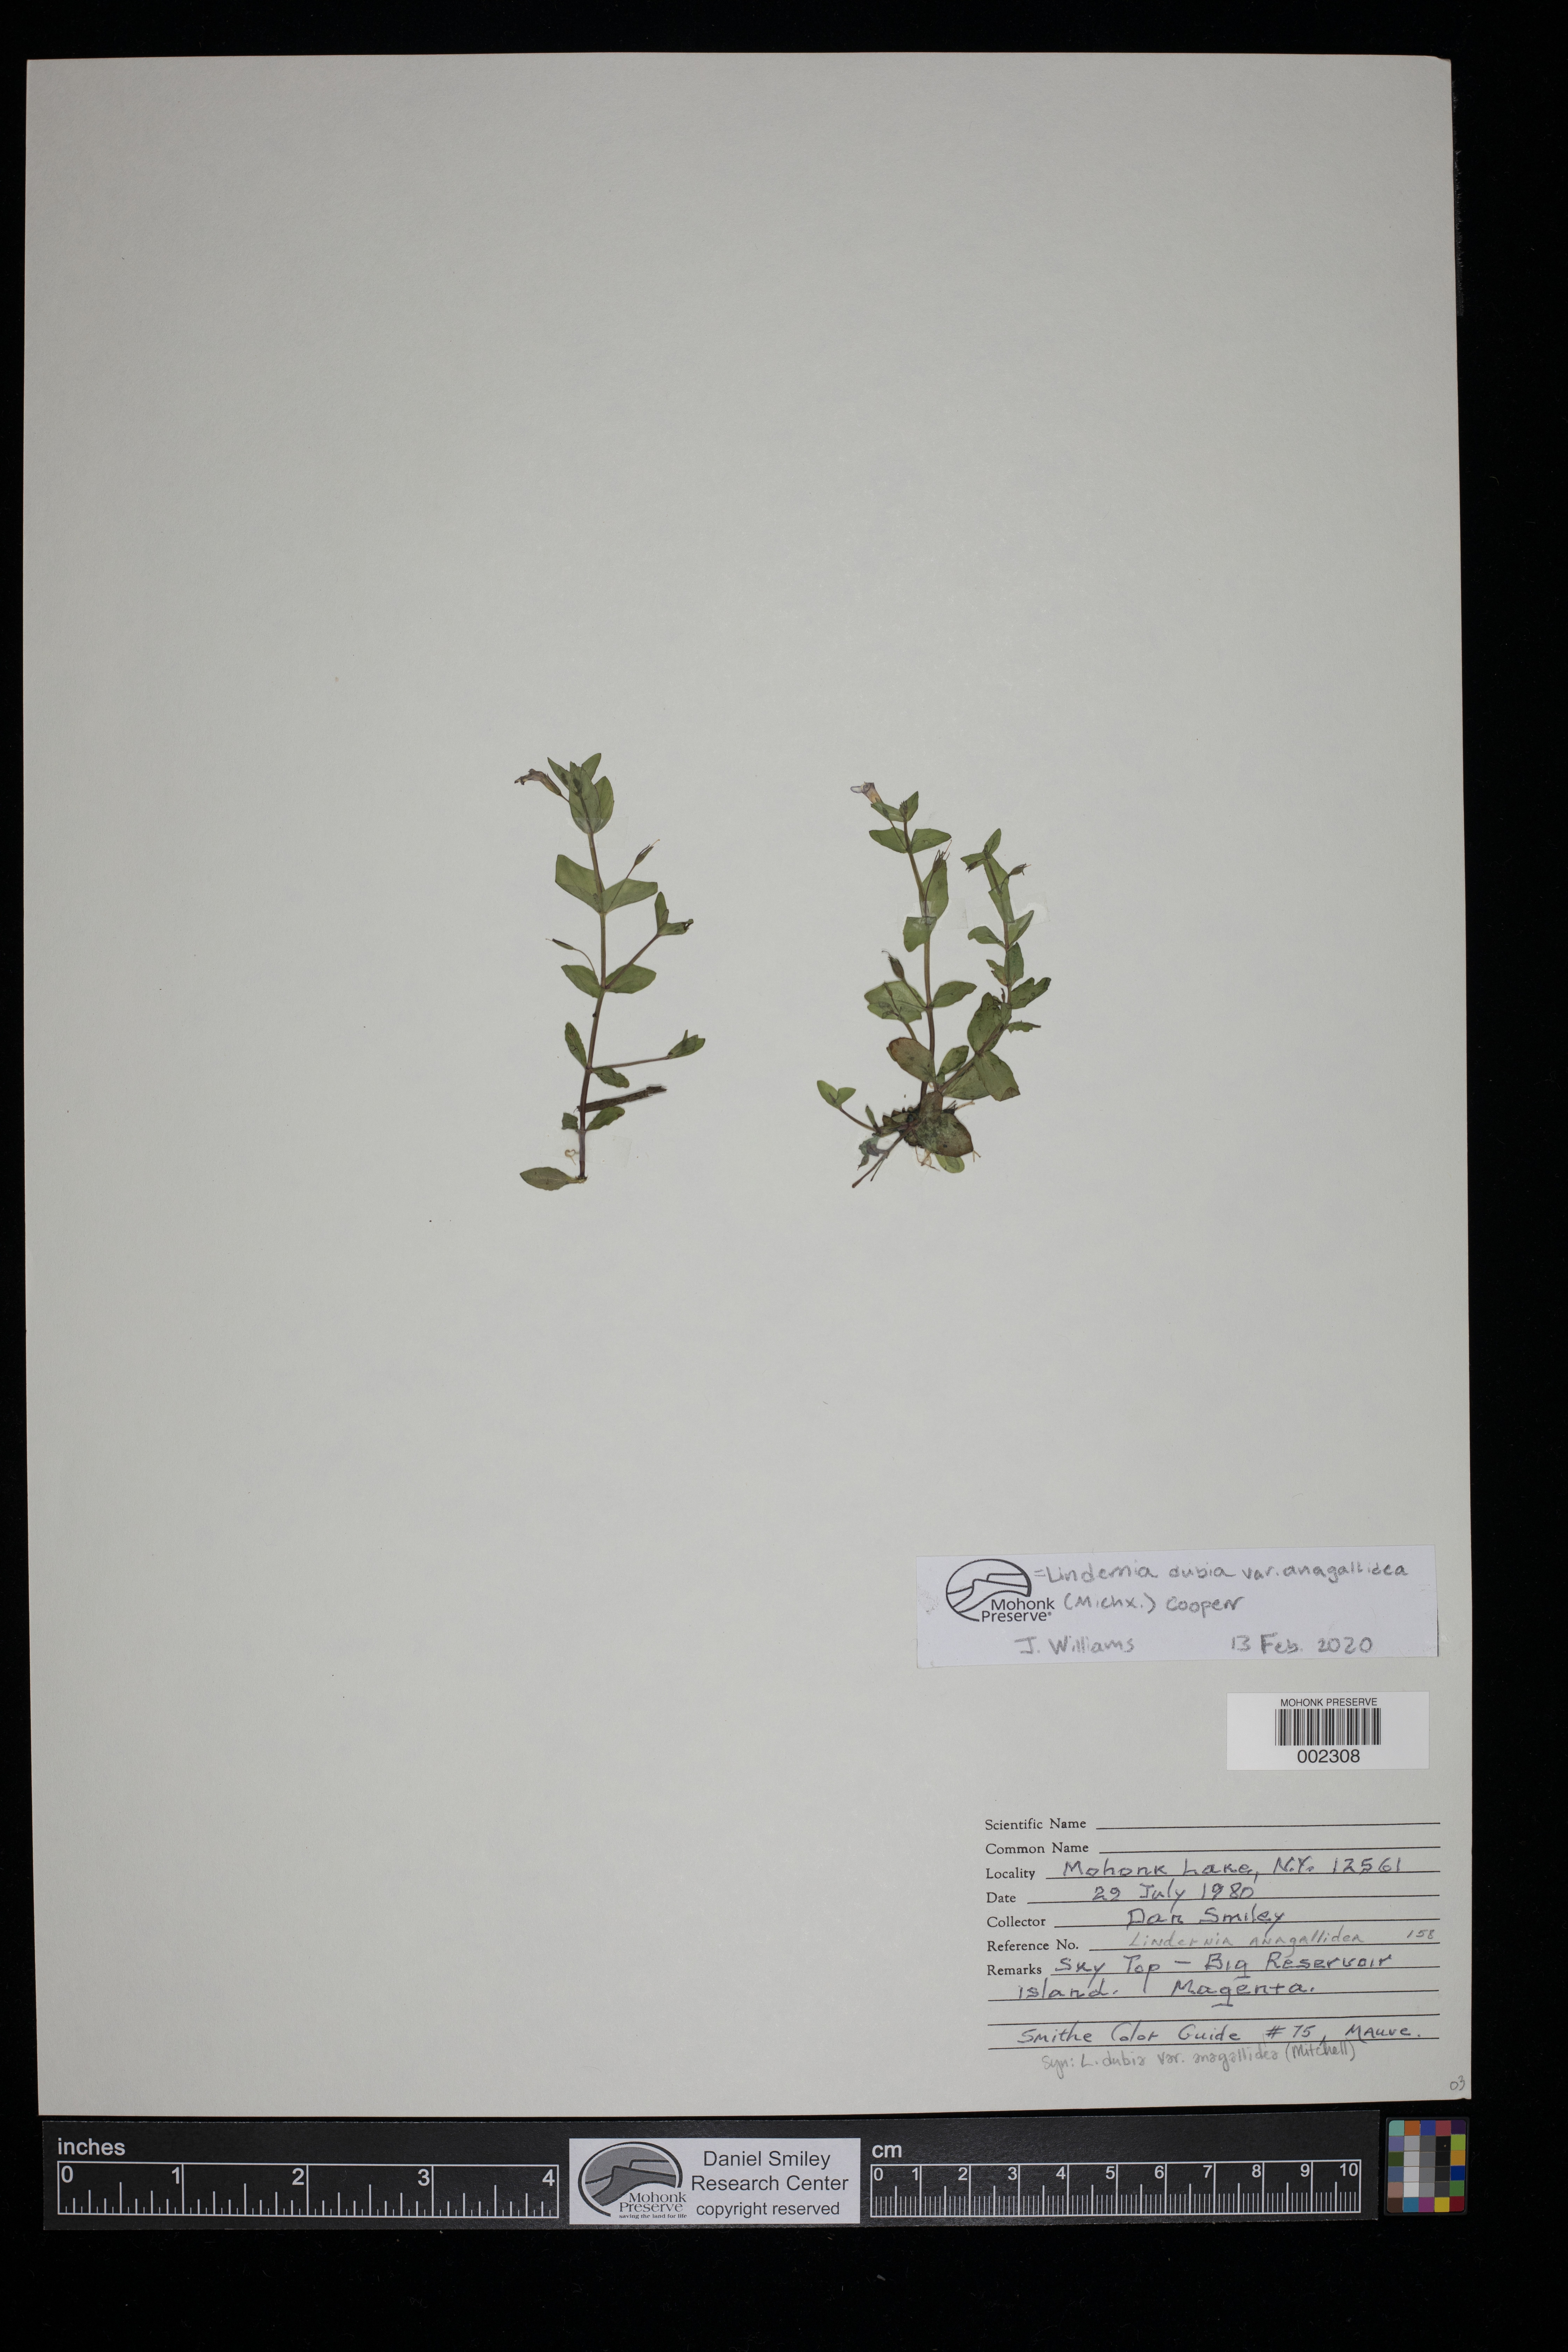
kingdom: Plantae
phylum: Tracheophyta
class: Magnoliopsida
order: Lamiales
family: Linderniaceae
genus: Lindernia
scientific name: Lindernia dubia
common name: Annual false pimpernel
